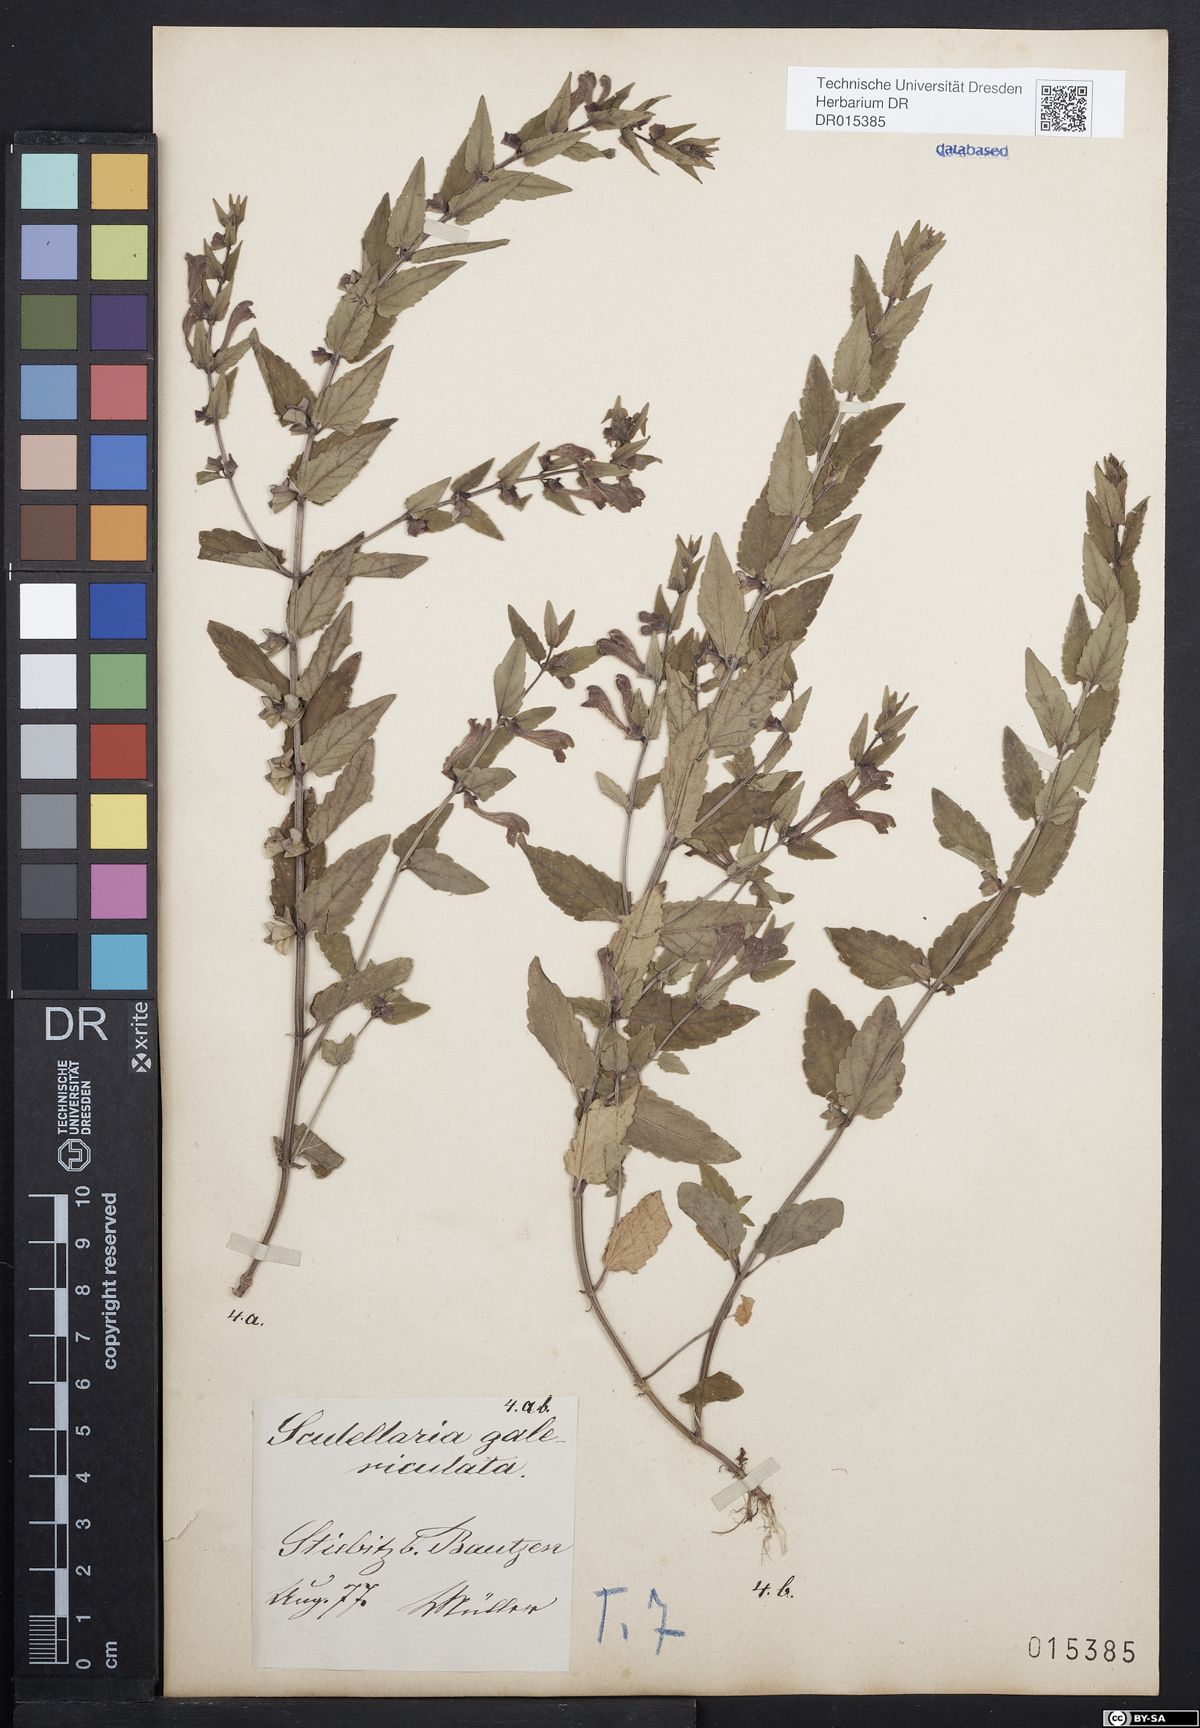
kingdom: Plantae
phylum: Tracheophyta
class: Magnoliopsida
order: Lamiales
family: Lamiaceae
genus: Scutellaria
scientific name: Scutellaria galericulata
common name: Skullcap
